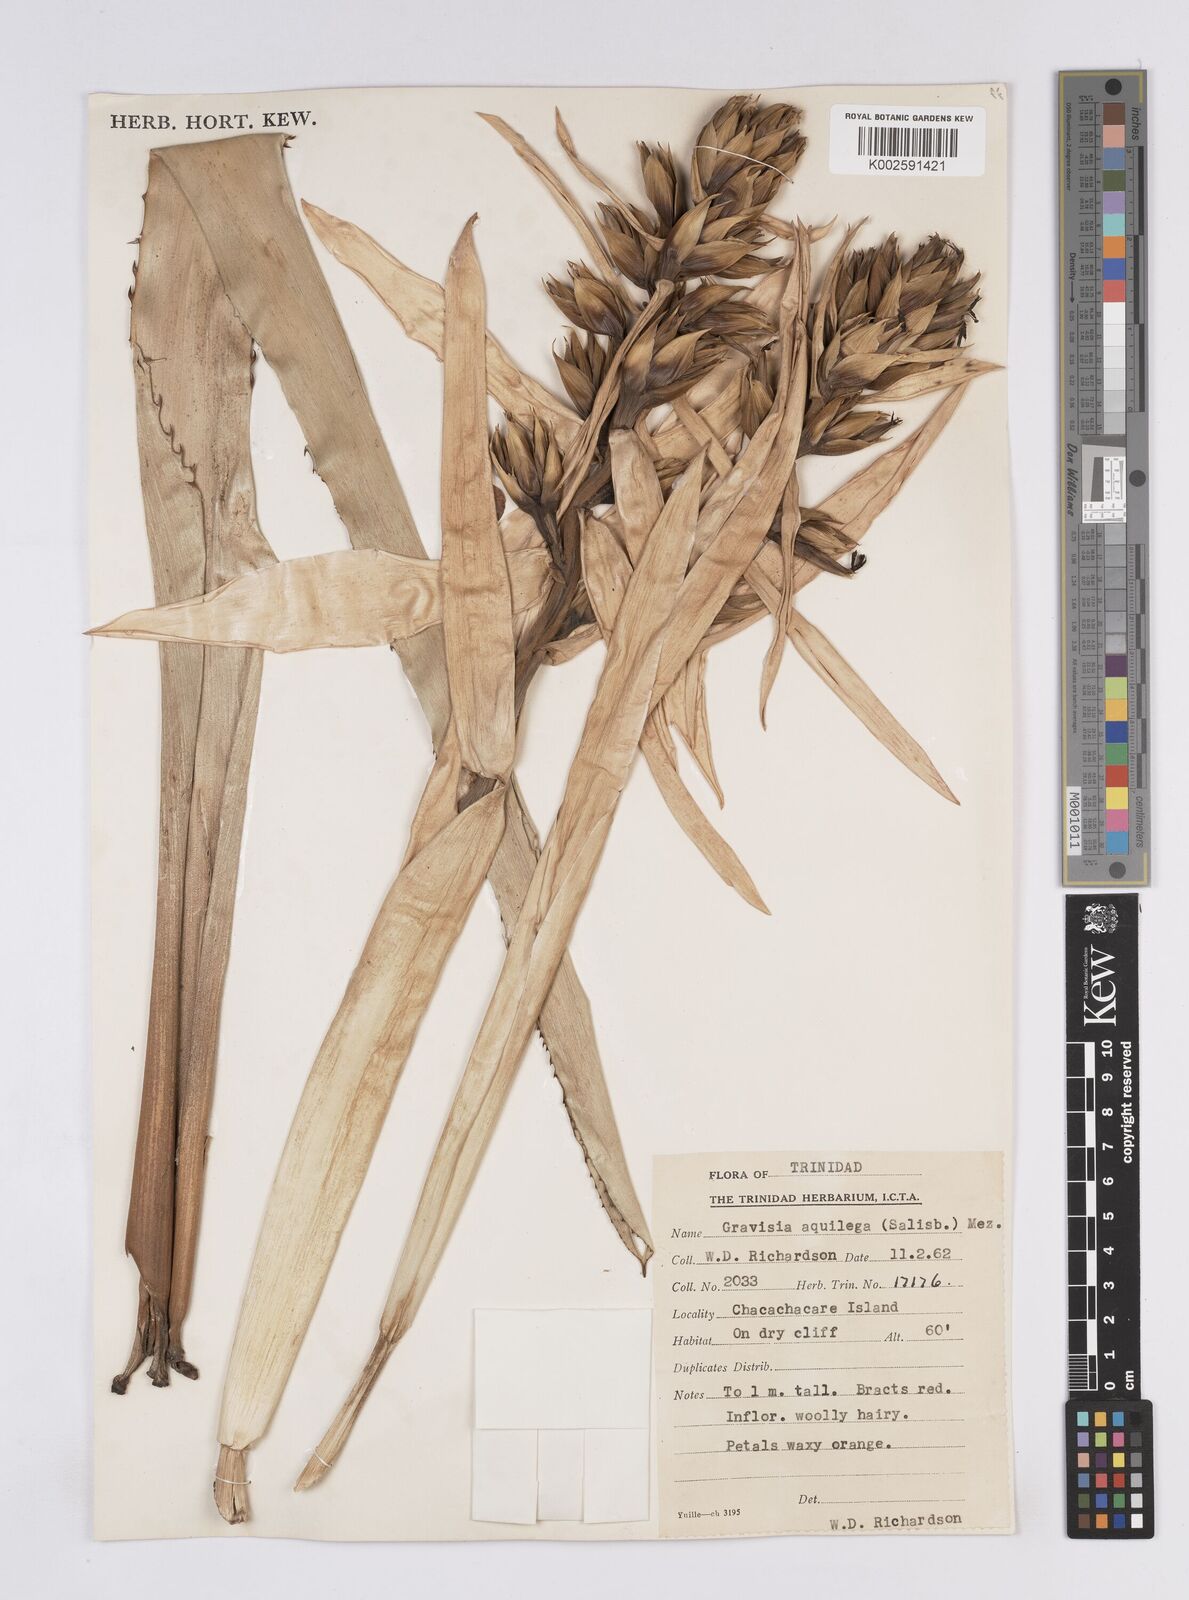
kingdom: Plantae
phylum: Tracheophyta
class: Liliopsida
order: Poales
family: Bromeliaceae
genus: Aechmea
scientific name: Aechmea aquilega
